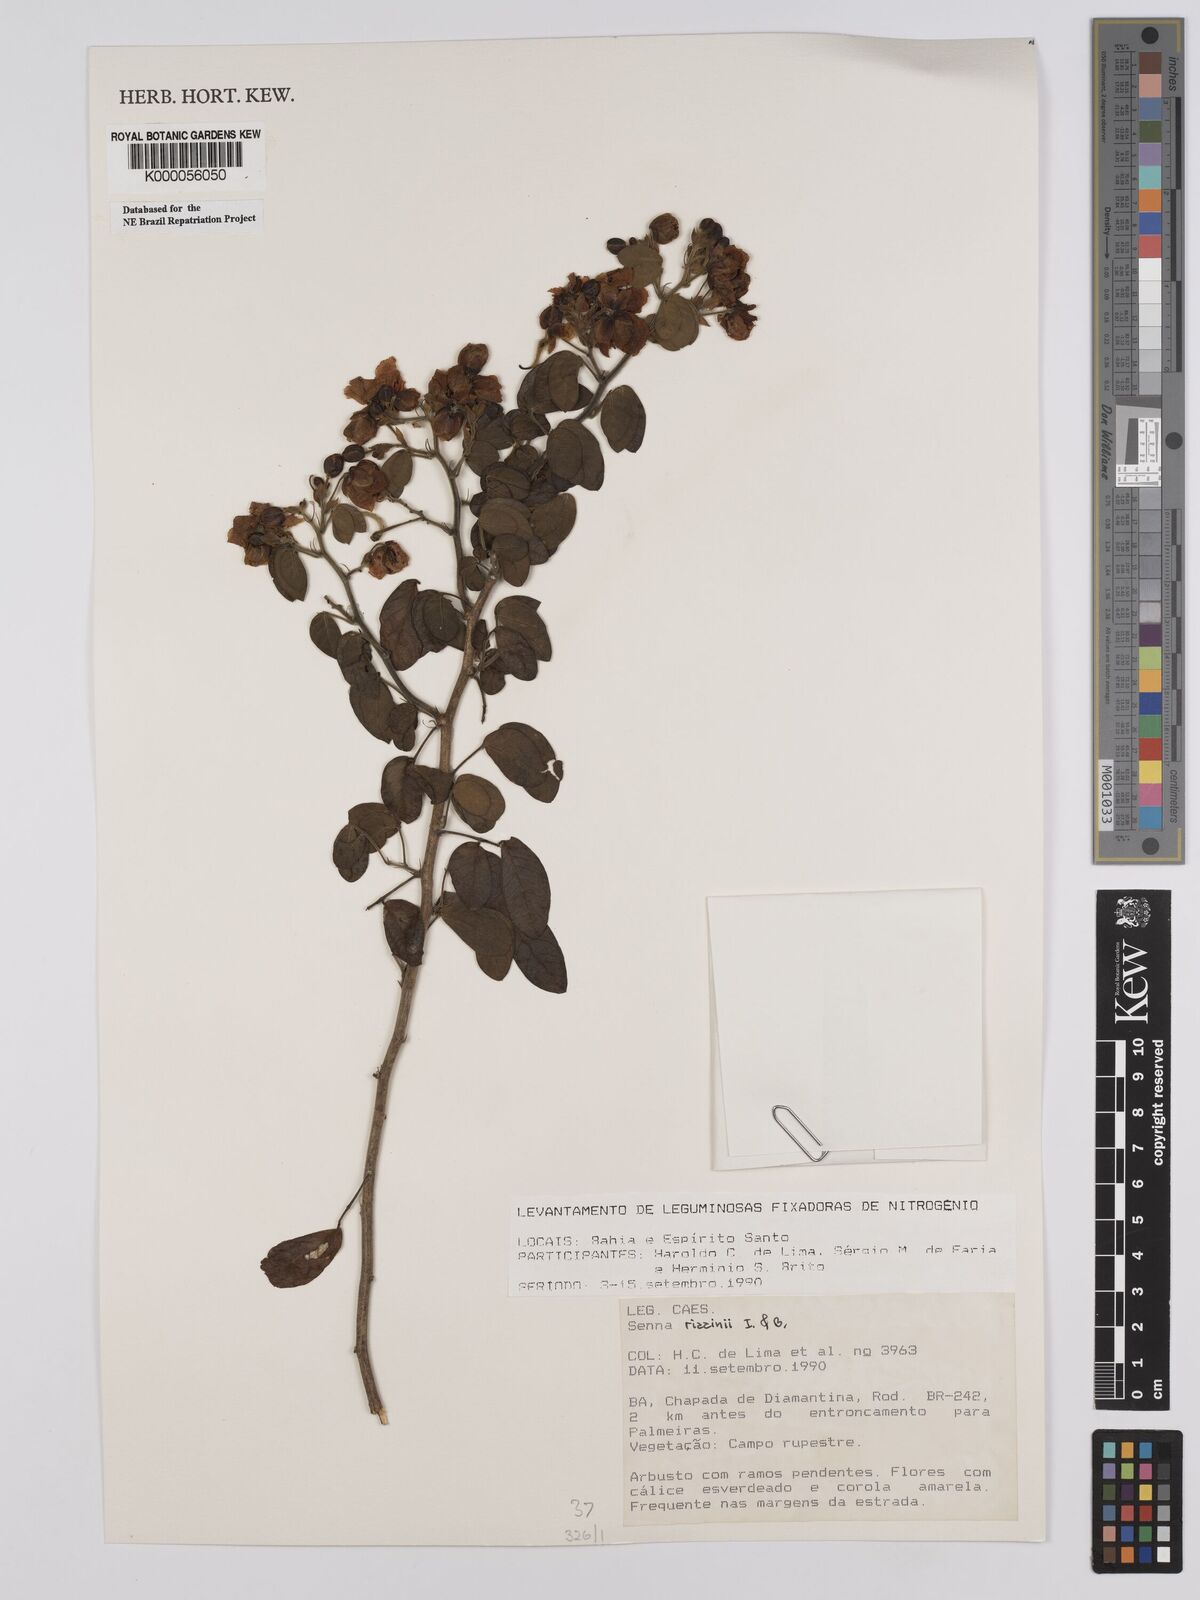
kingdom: Plantae
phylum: Tracheophyta
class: Magnoliopsida
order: Fabales
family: Fabaceae
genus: Senna
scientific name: Senna rizzinii
